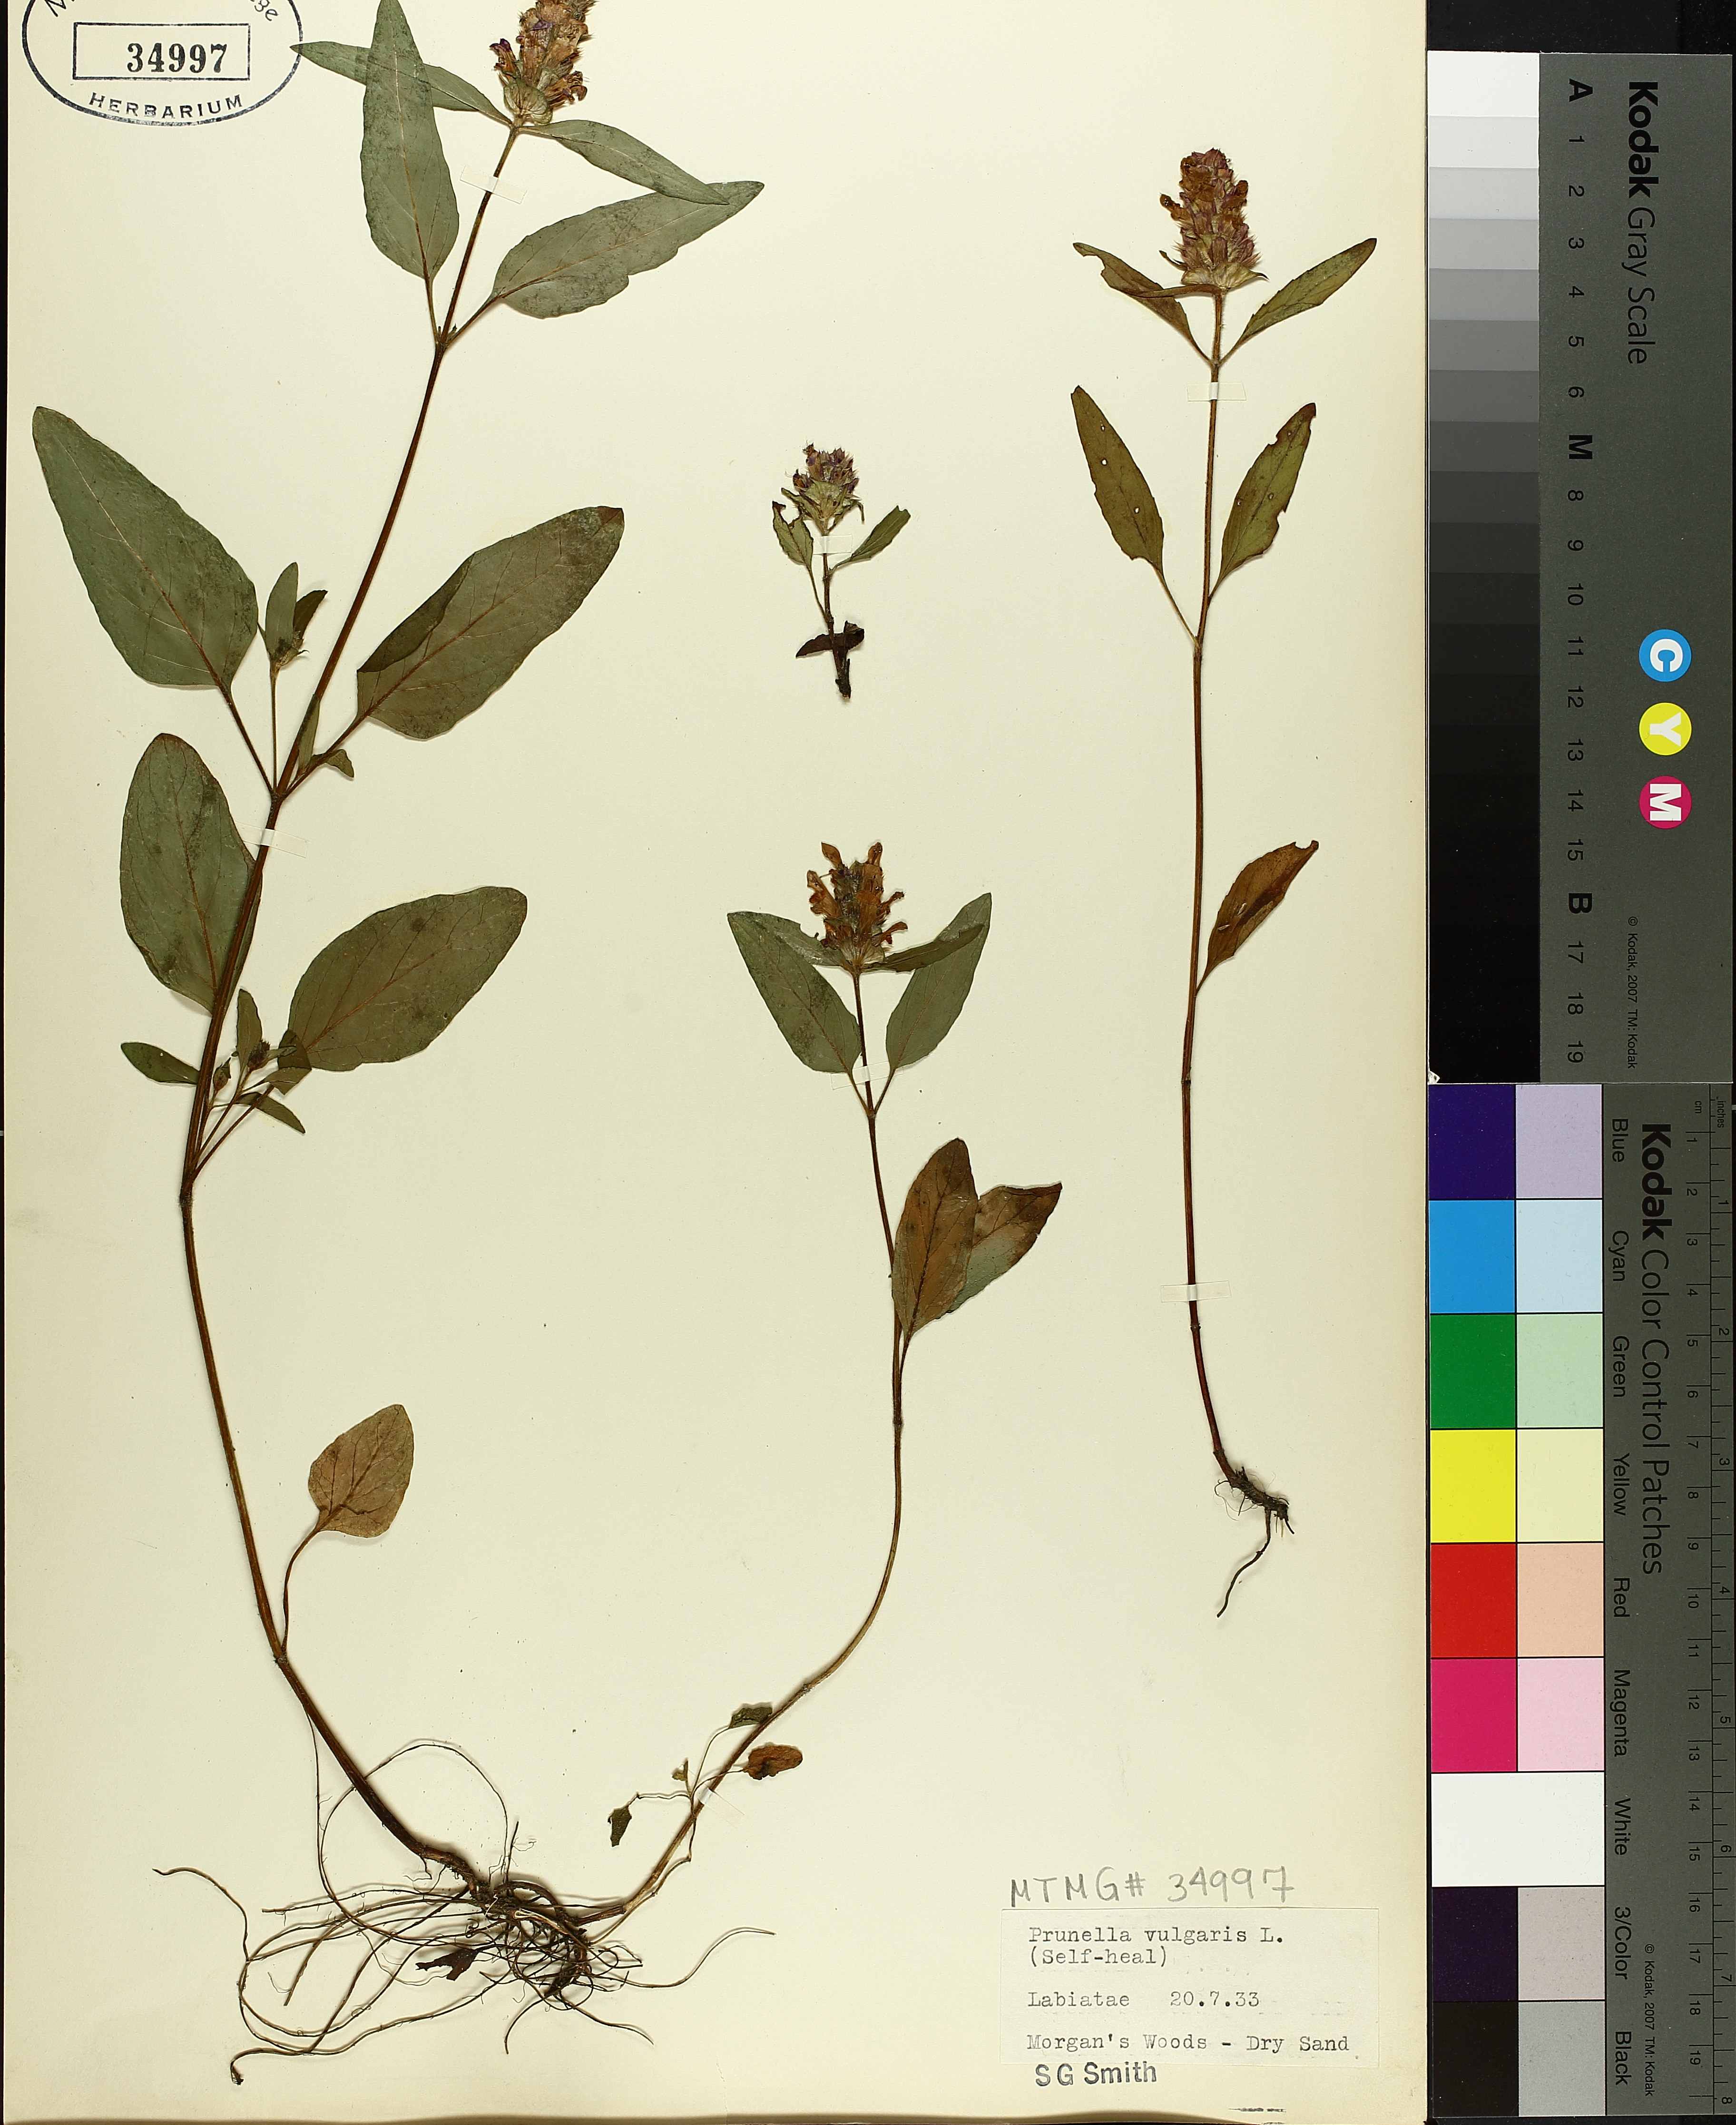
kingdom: Plantae
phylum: Tracheophyta
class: Magnoliopsida
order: Lamiales
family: Lamiaceae
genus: Prunella
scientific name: Prunella vulgaris
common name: Heal-all
